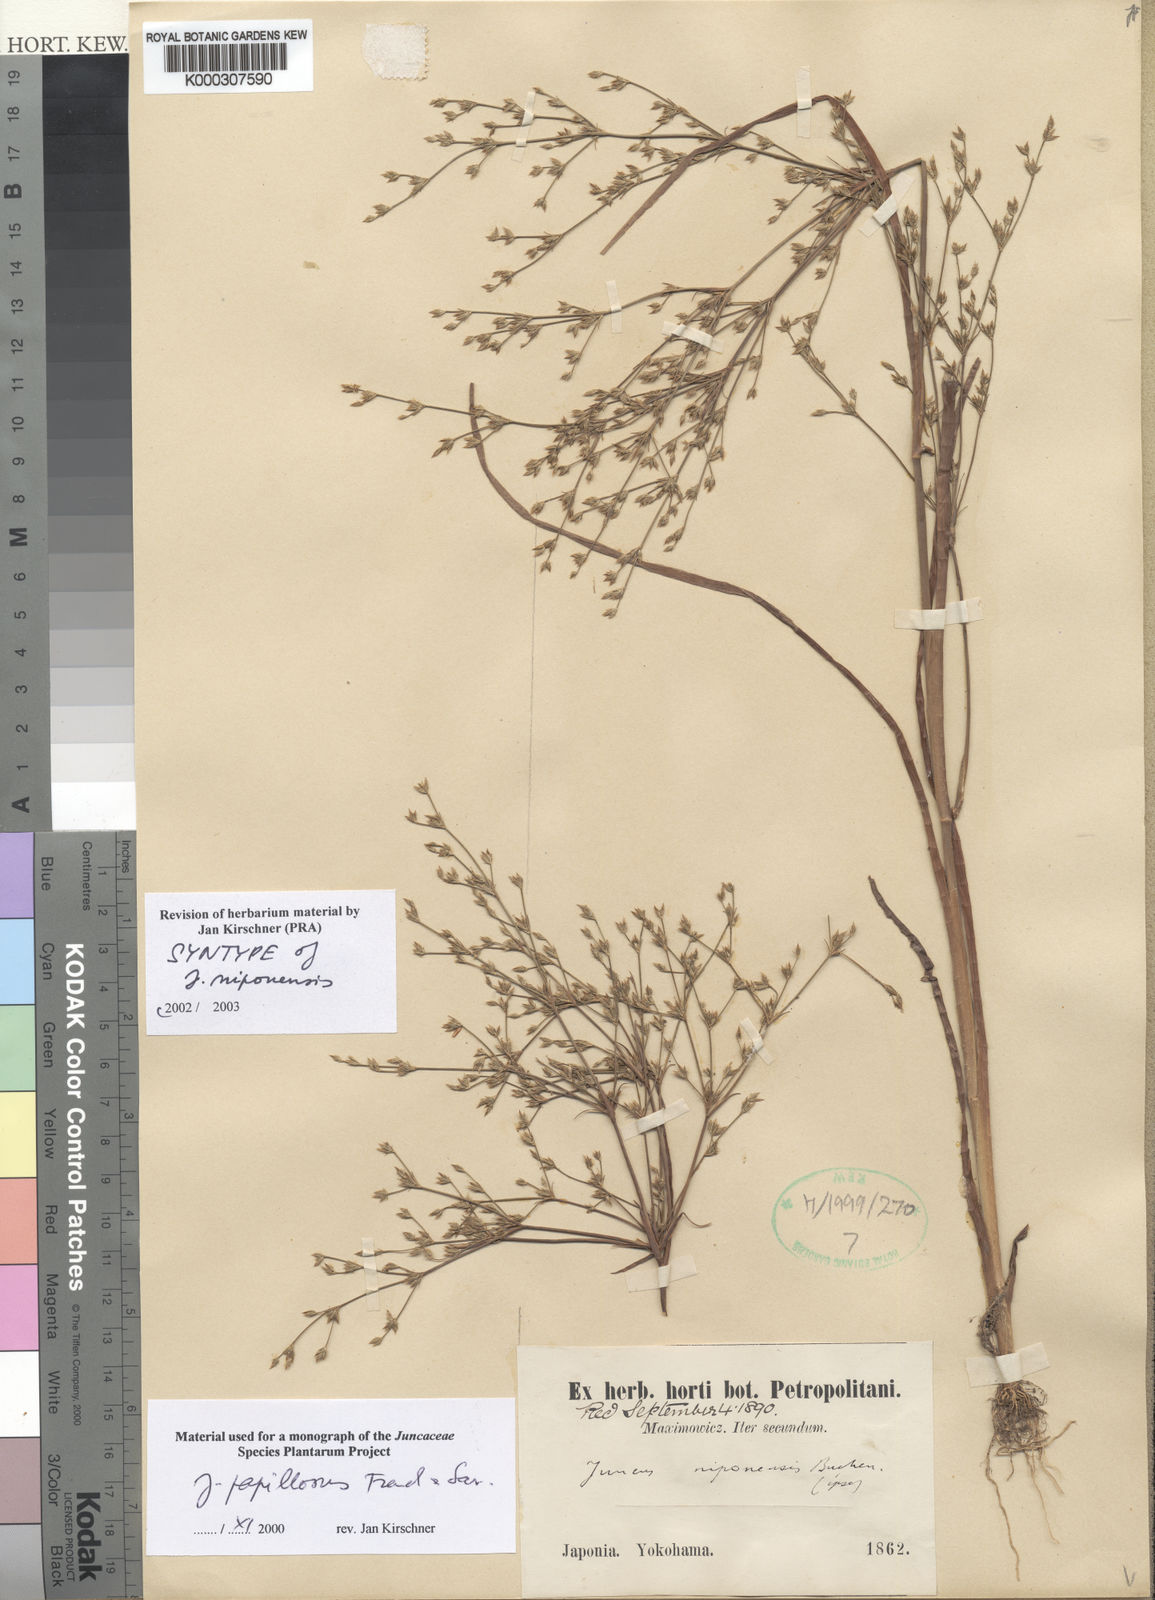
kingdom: Plantae
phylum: Tracheophyta
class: Liliopsida
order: Poales
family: Juncaceae
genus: Juncus
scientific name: Juncus papillosus
